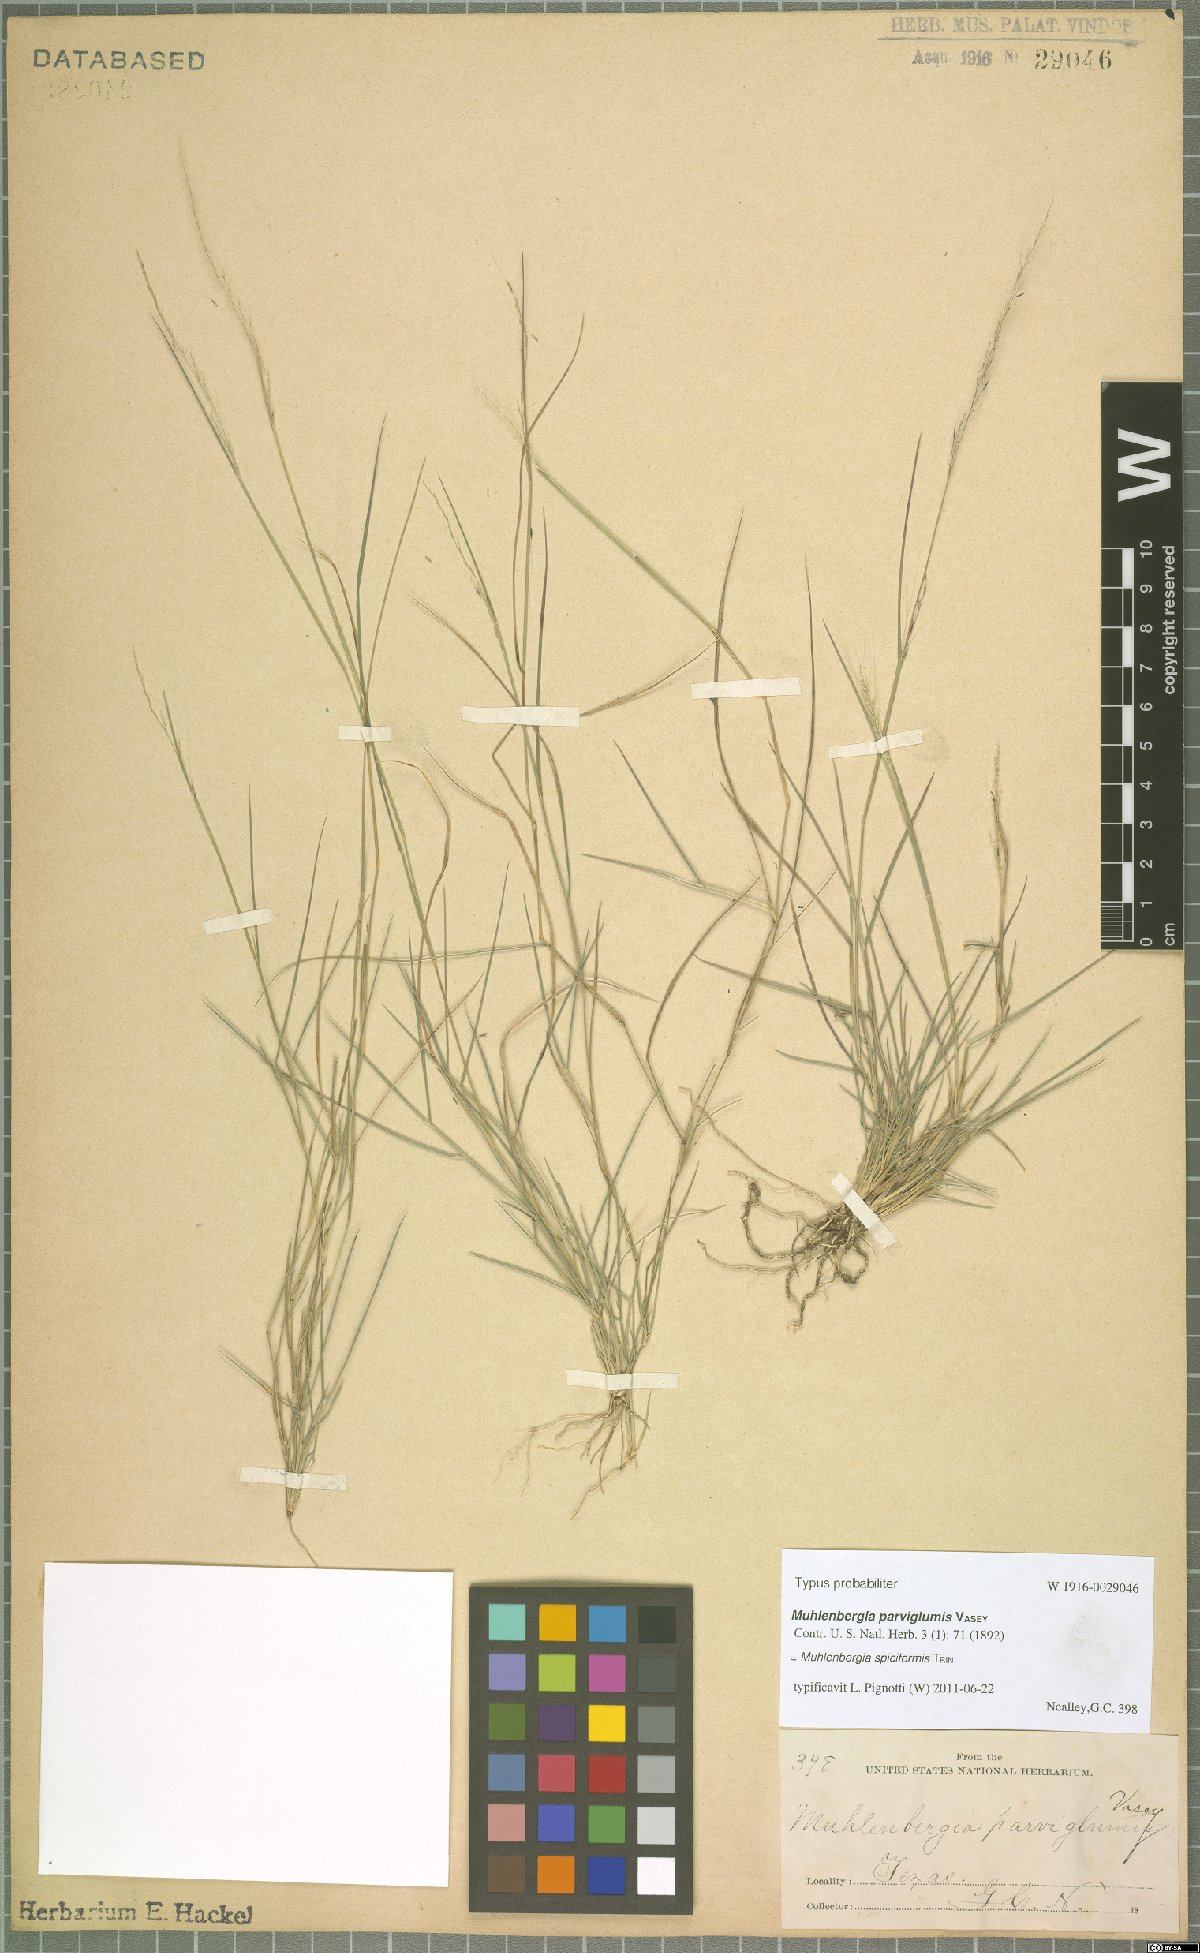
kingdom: Plantae
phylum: Tracheophyta
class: Liliopsida
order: Poales
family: Poaceae
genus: Muhlenbergia
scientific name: Muhlenbergia spiciformis
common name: Longawn muhly
